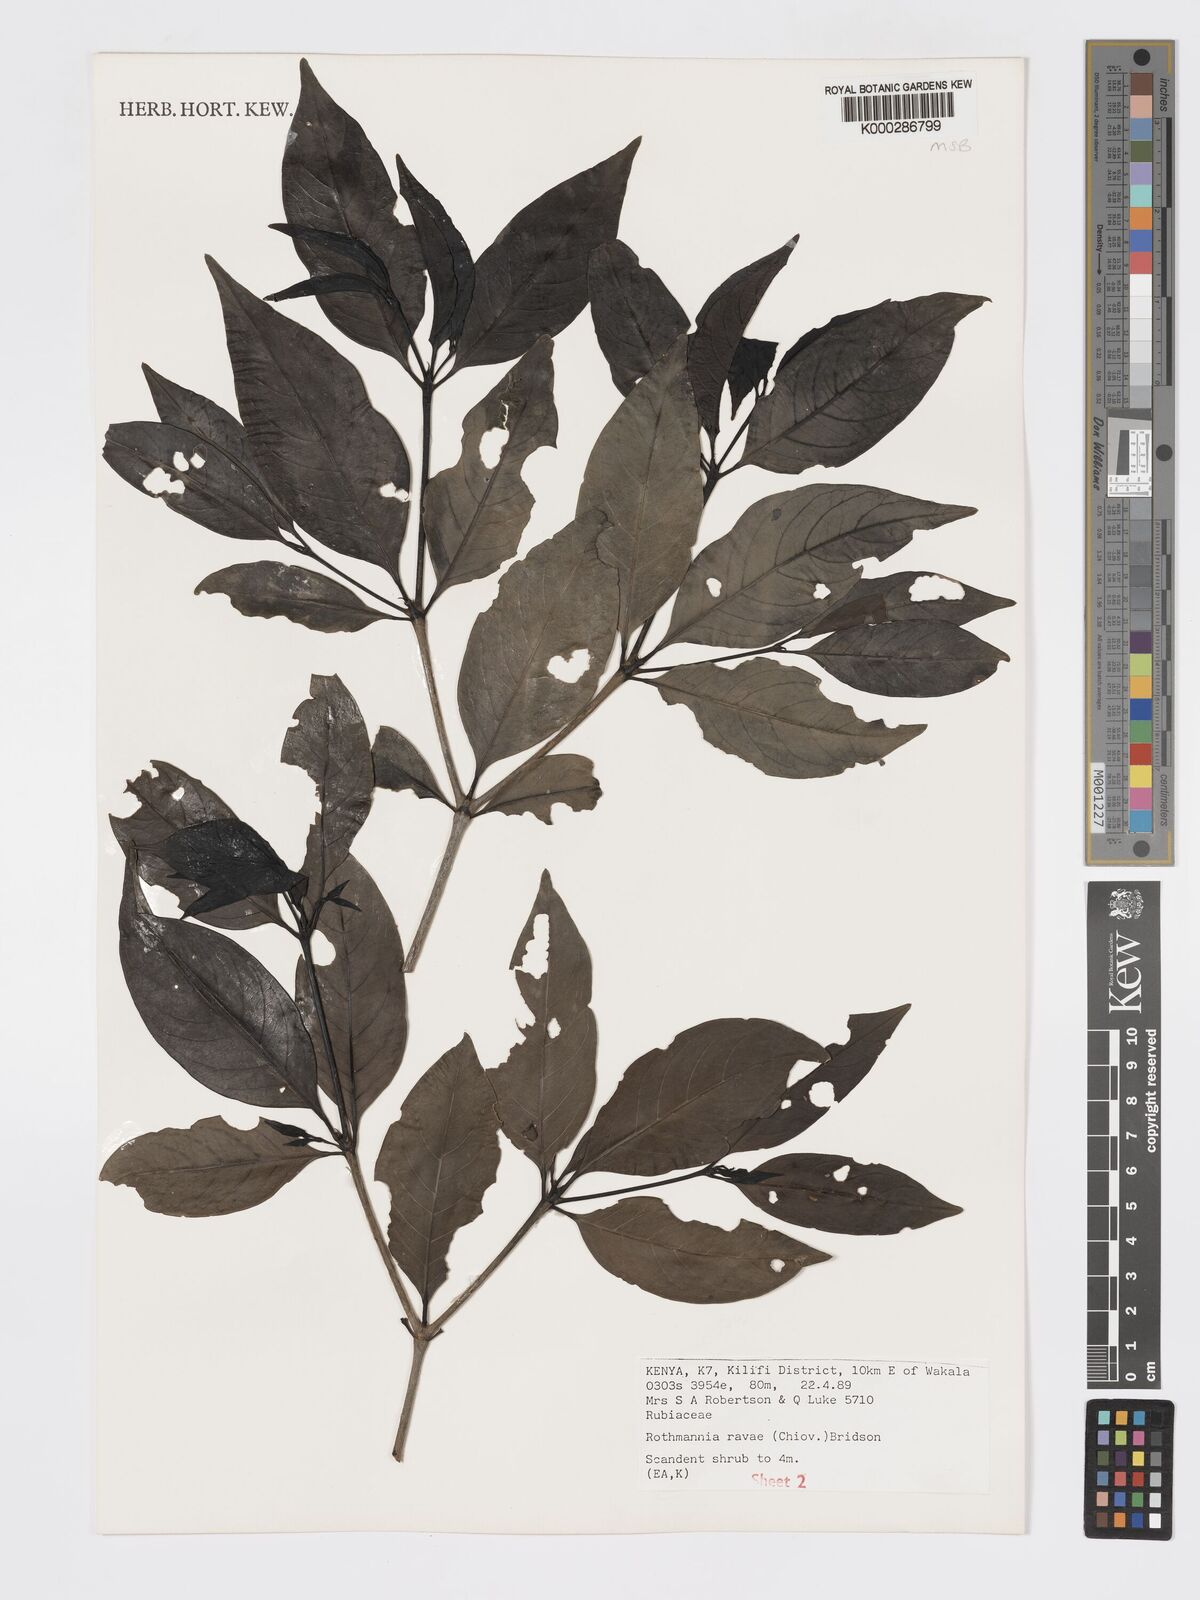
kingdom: Plantae
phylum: Tracheophyta
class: Magnoliopsida
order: Gentianales
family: Rubiaceae
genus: Rothmannia
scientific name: Rothmannia ravae
